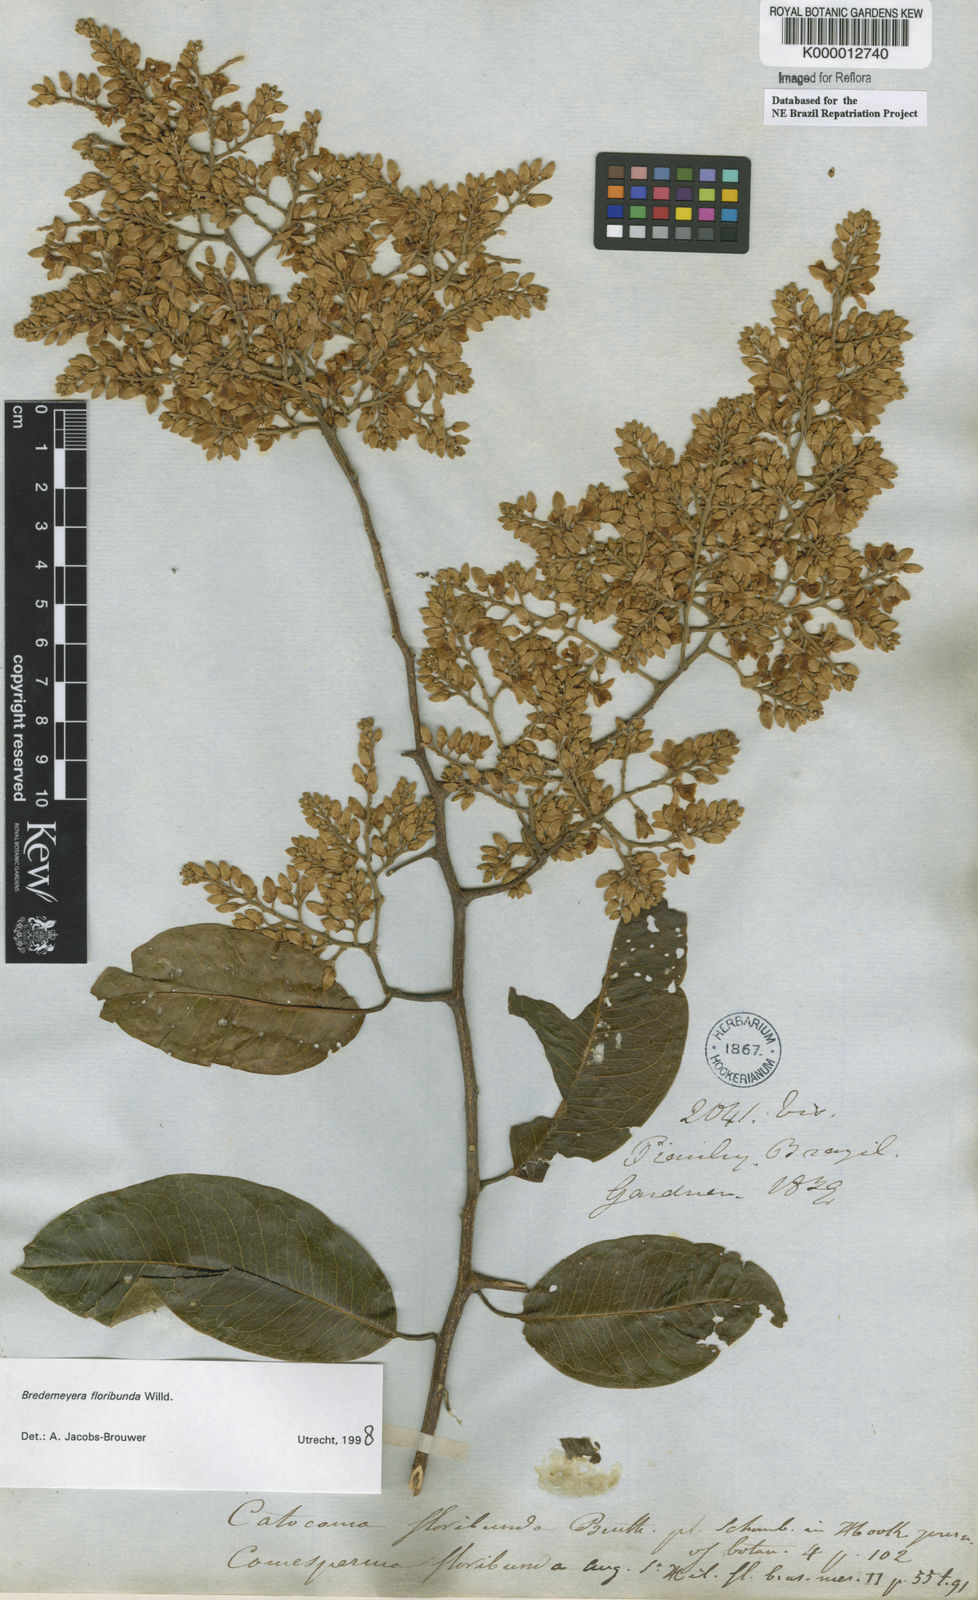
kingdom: Plantae
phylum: Tracheophyta
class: Magnoliopsida
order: Fabales
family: Polygalaceae
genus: Bredemeyera
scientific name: Bredemeyera floribunda
